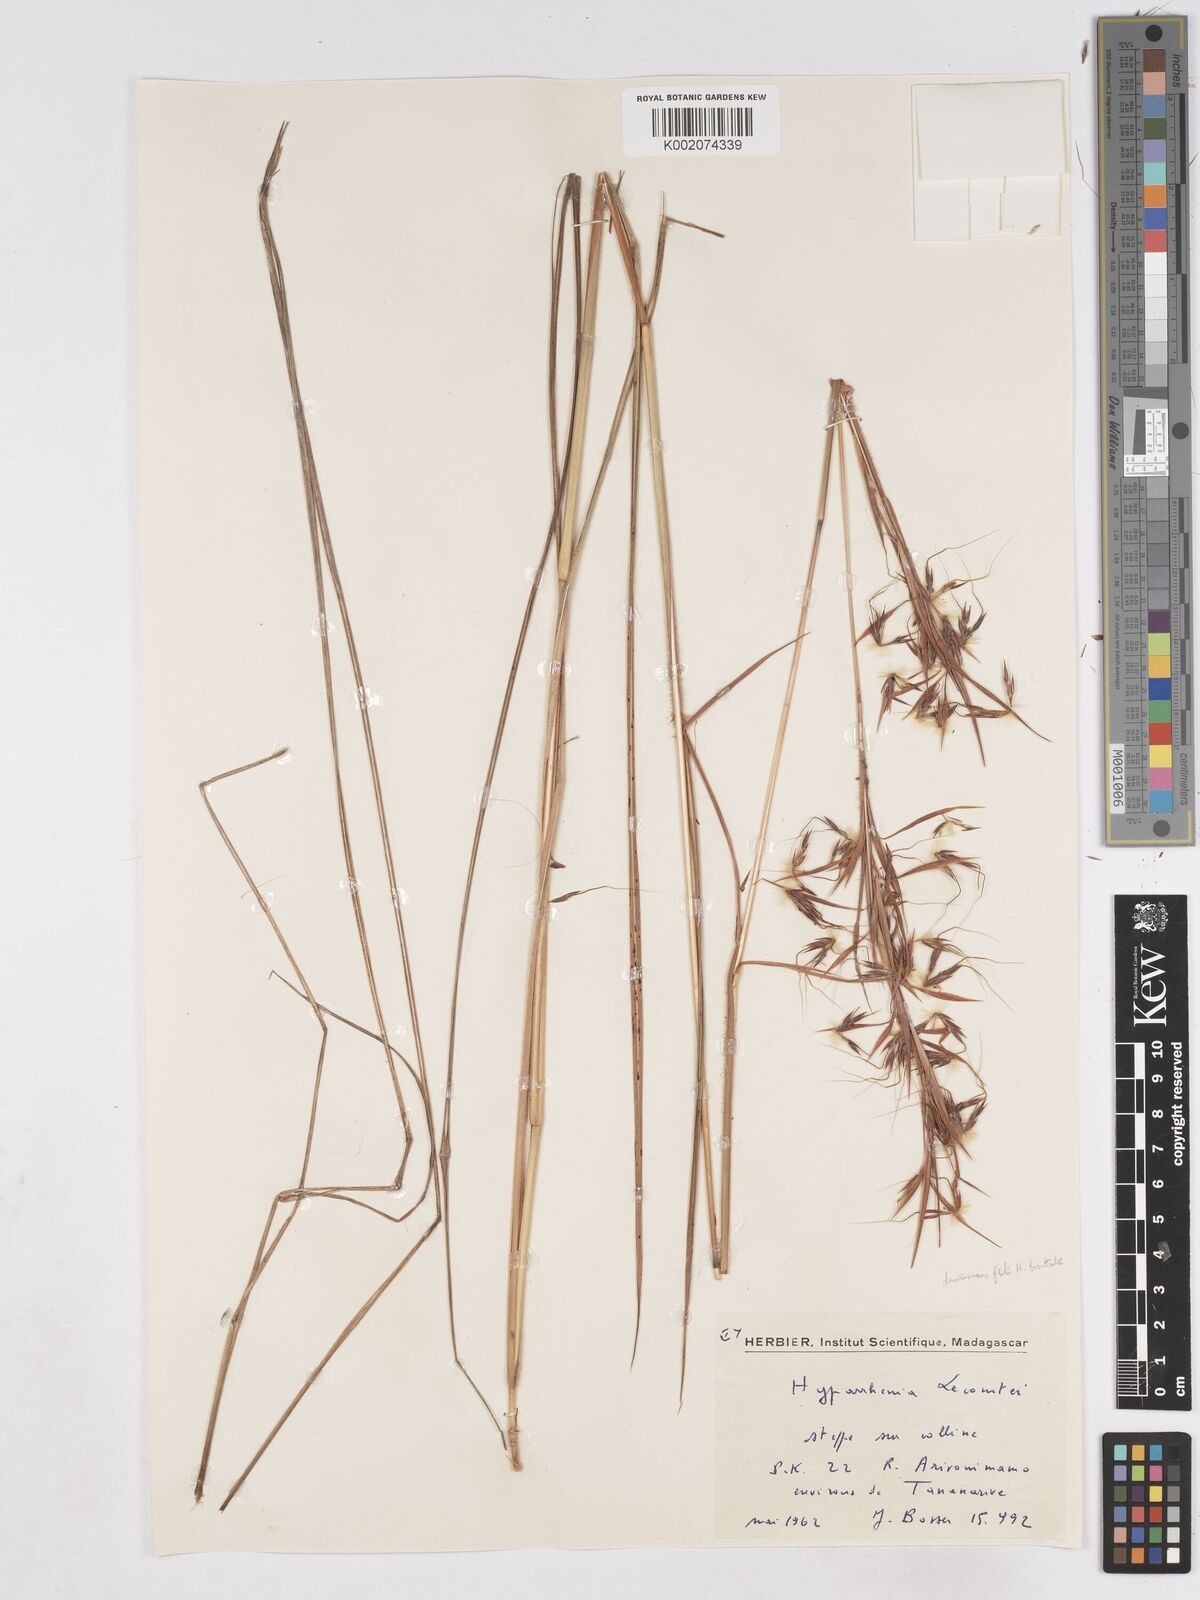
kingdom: Plantae
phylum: Tracheophyta
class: Liliopsida
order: Poales
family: Poaceae
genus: Hyparrhenia
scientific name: Hyparrhenia newtonii
